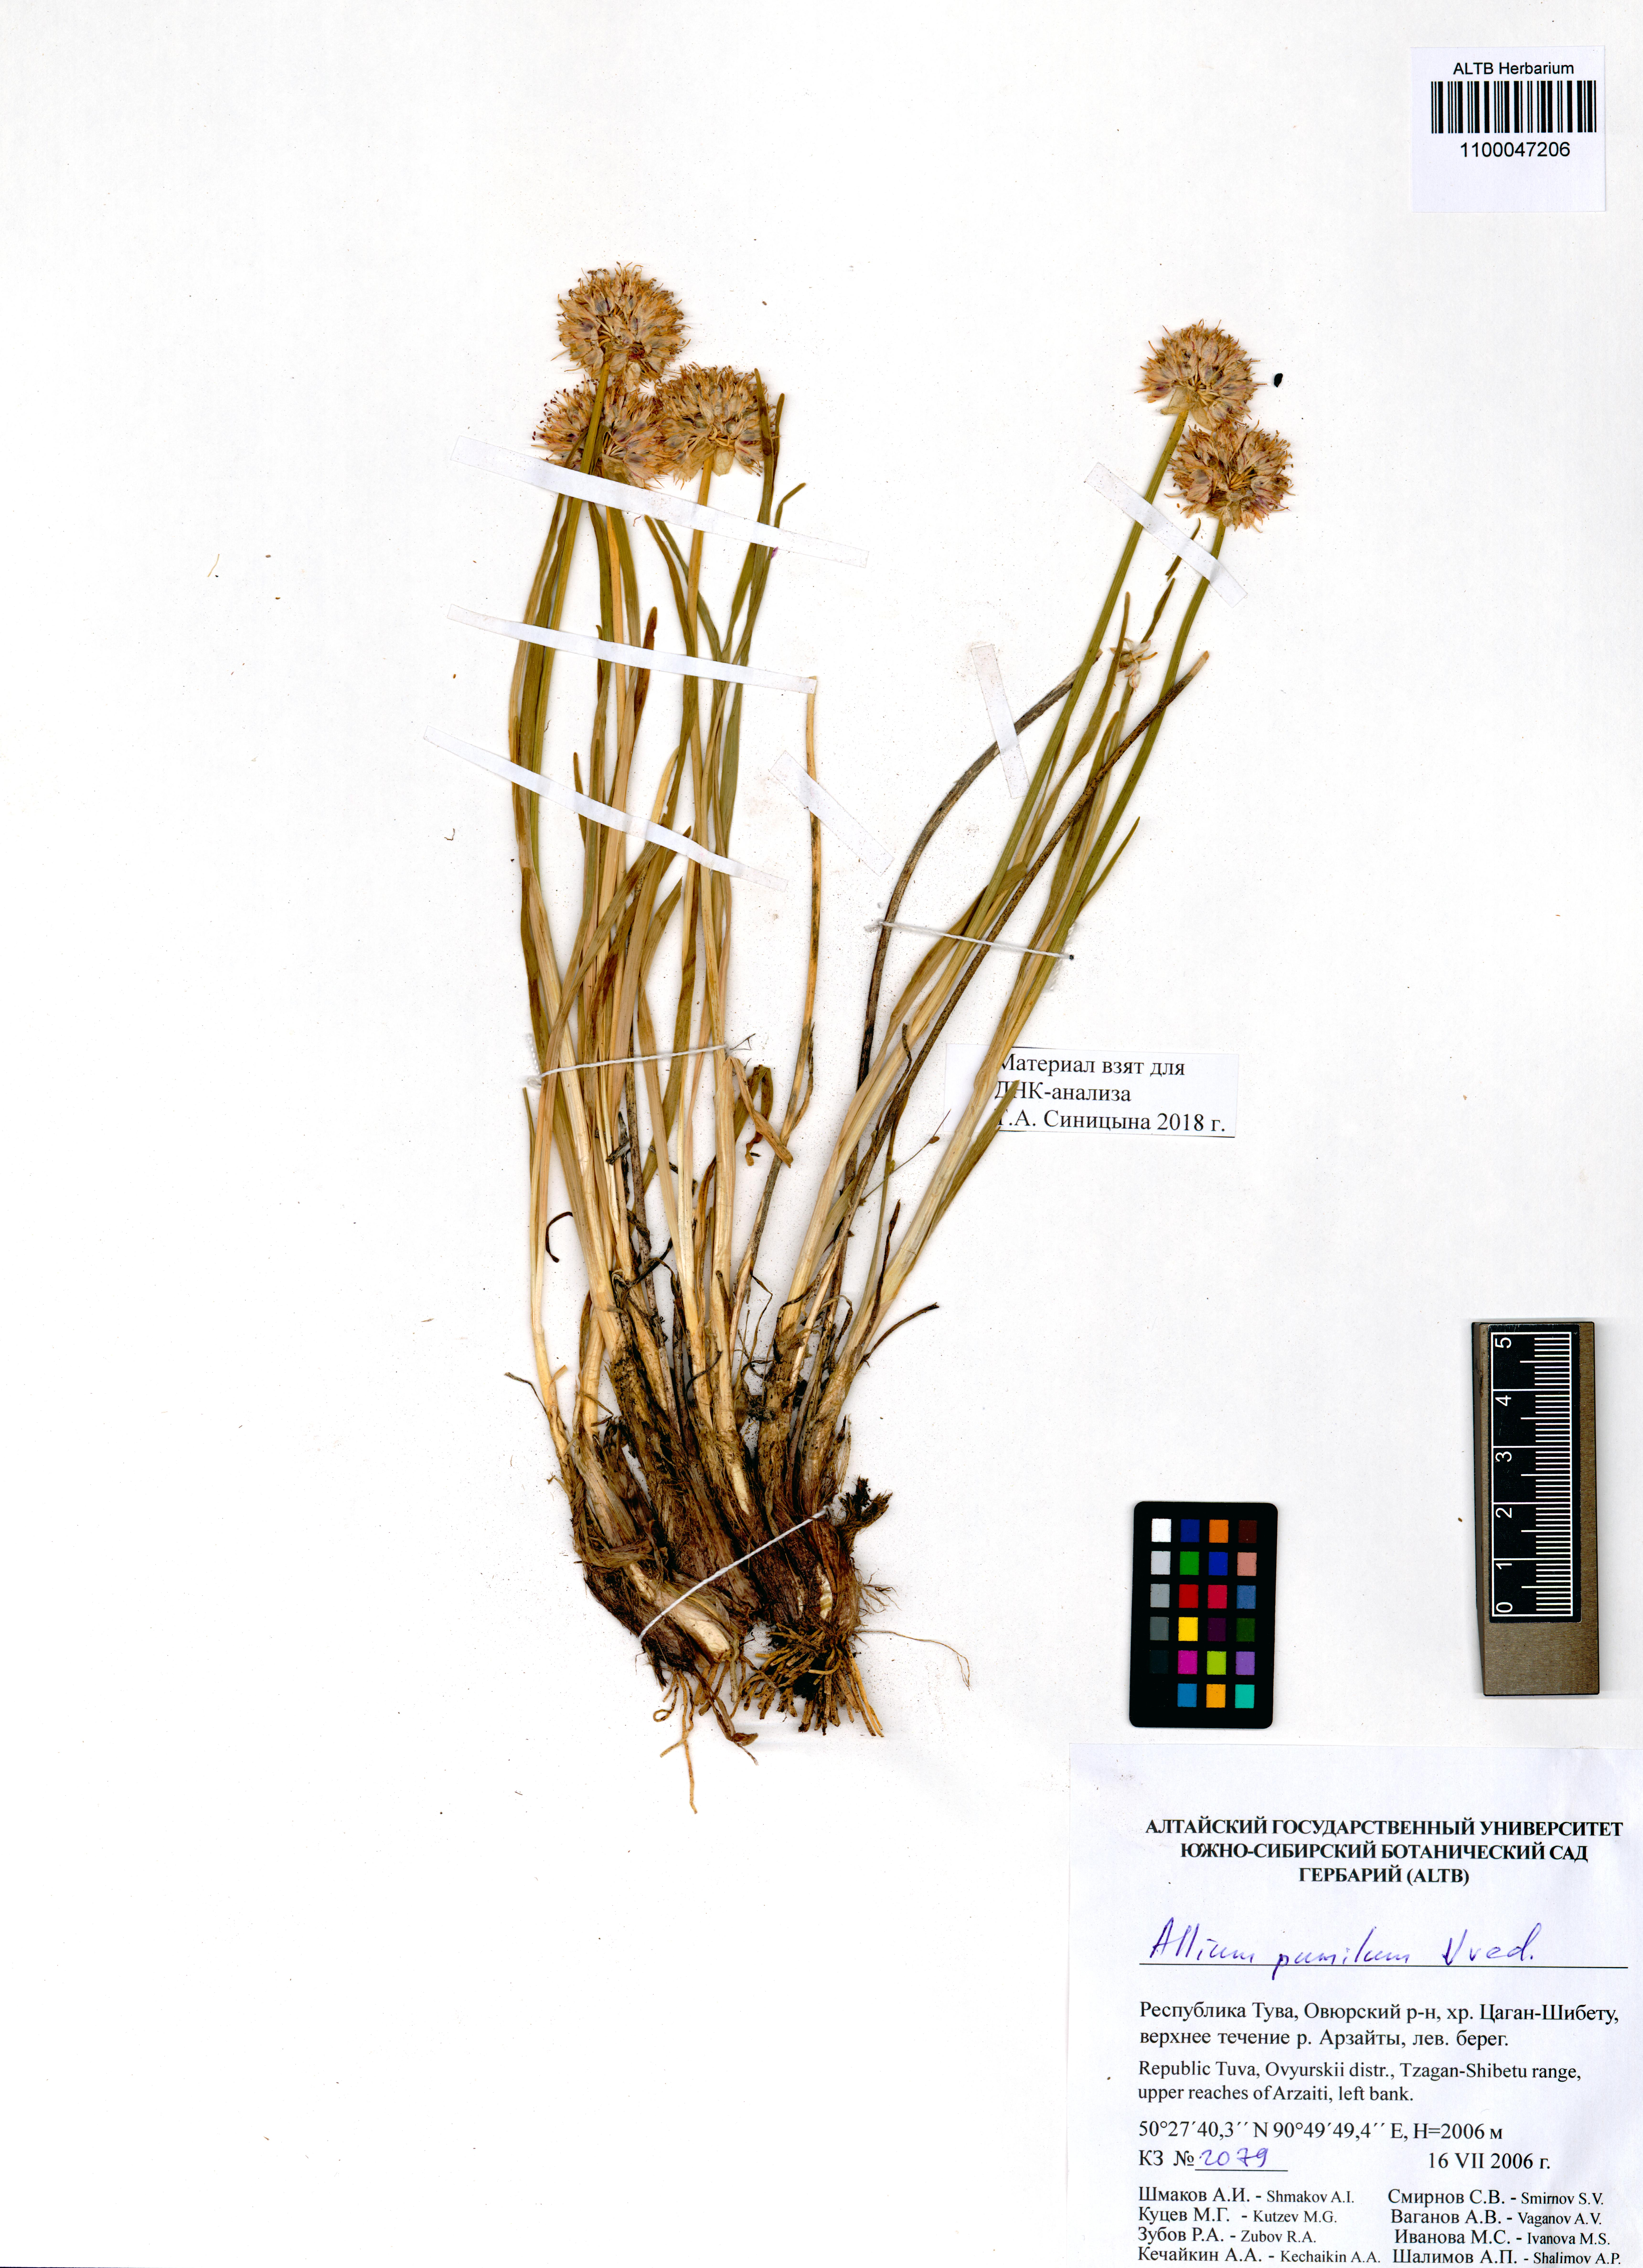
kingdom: Plantae
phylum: Tracheophyta
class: Liliopsida
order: Asparagales
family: Amaryllidaceae
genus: Allium
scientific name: Allium pumilum
